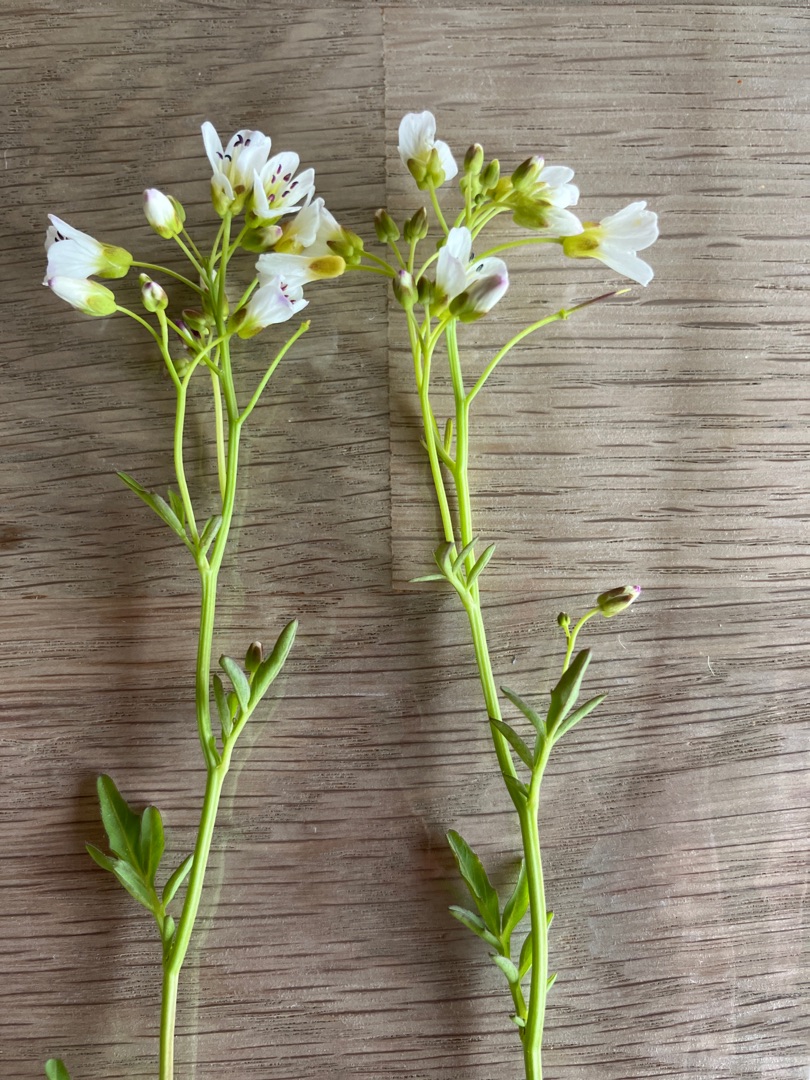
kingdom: Plantae
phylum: Tracheophyta
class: Magnoliopsida
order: Brassicales
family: Brassicaceae
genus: Cardamine
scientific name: Cardamine amara
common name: Vandkarse
